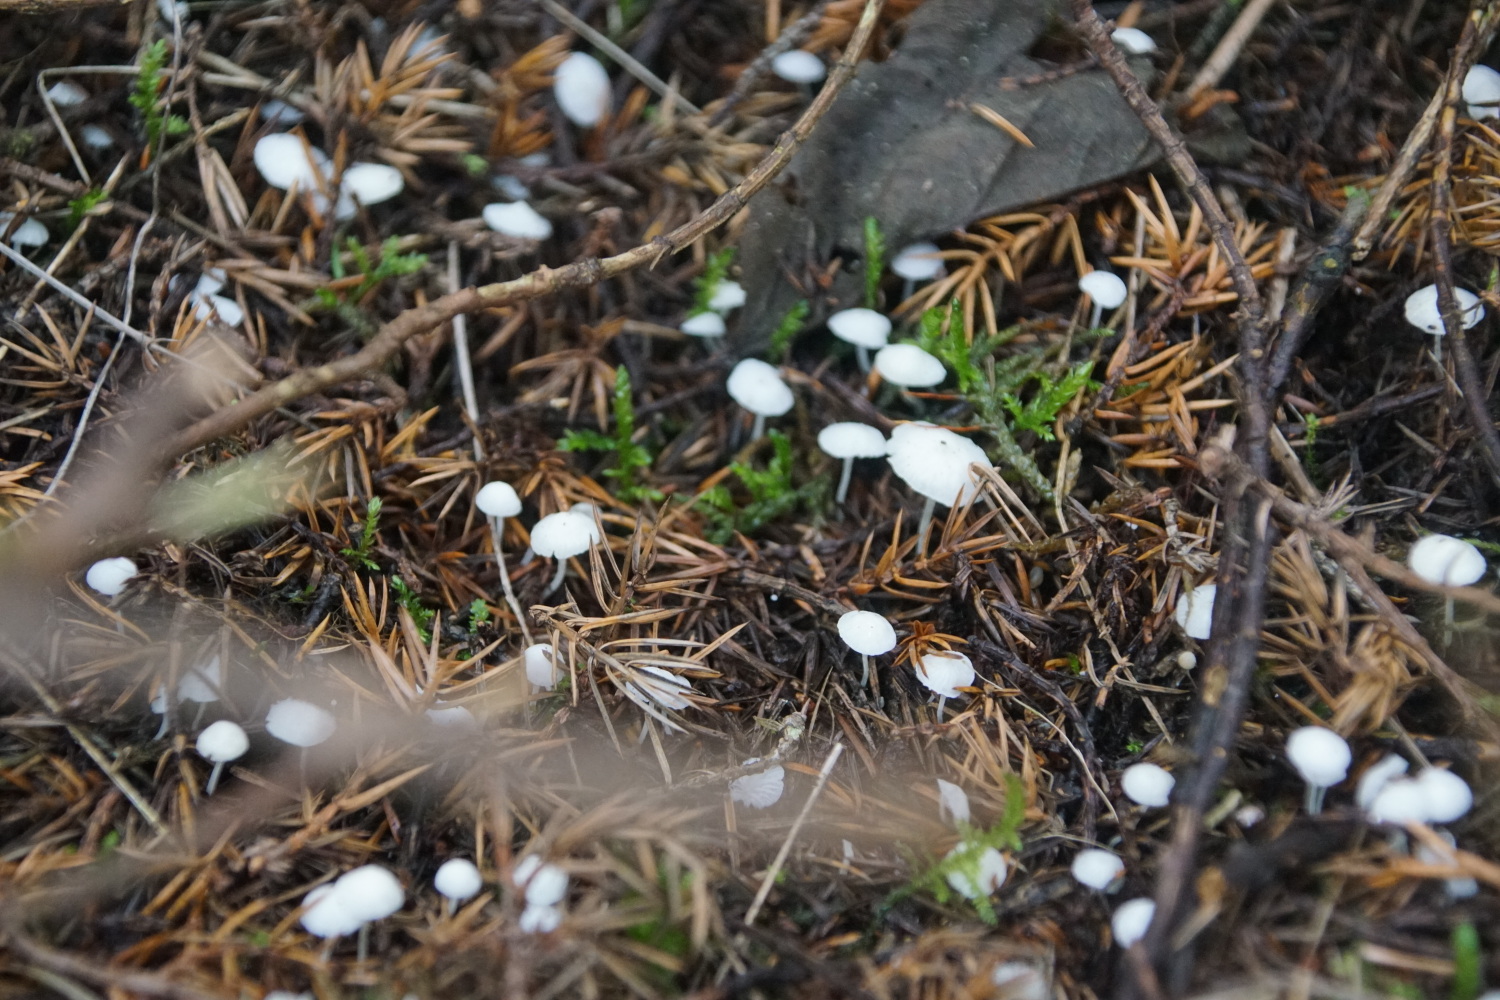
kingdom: Fungi
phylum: Basidiomycota
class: Agaricomycetes
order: Agaricales
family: Mycenaceae
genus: Hemimycena
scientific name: Hemimycena lactea
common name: mælkehvid huesvamp
